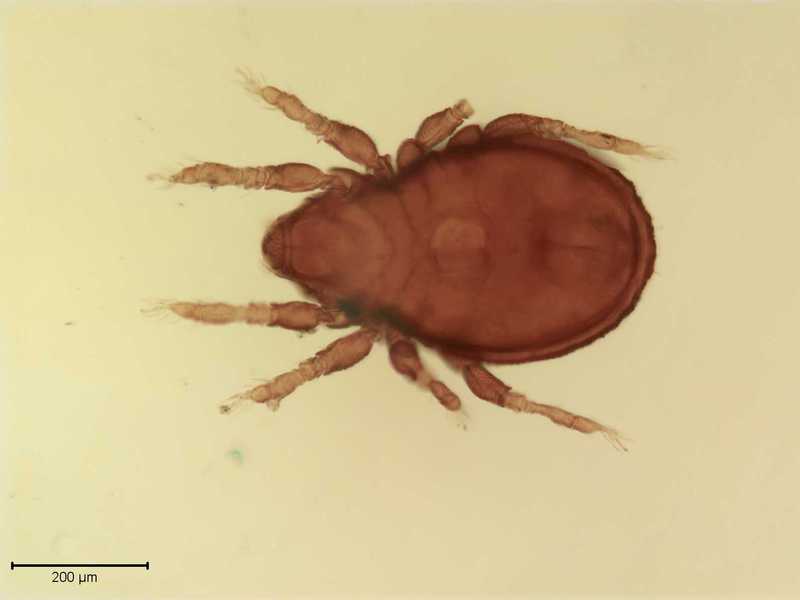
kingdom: Animalia
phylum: Arthropoda
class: Arachnida
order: Sarcoptiformes
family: Scutoverticidae
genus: Scutovertex
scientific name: Scutovertex minutus
